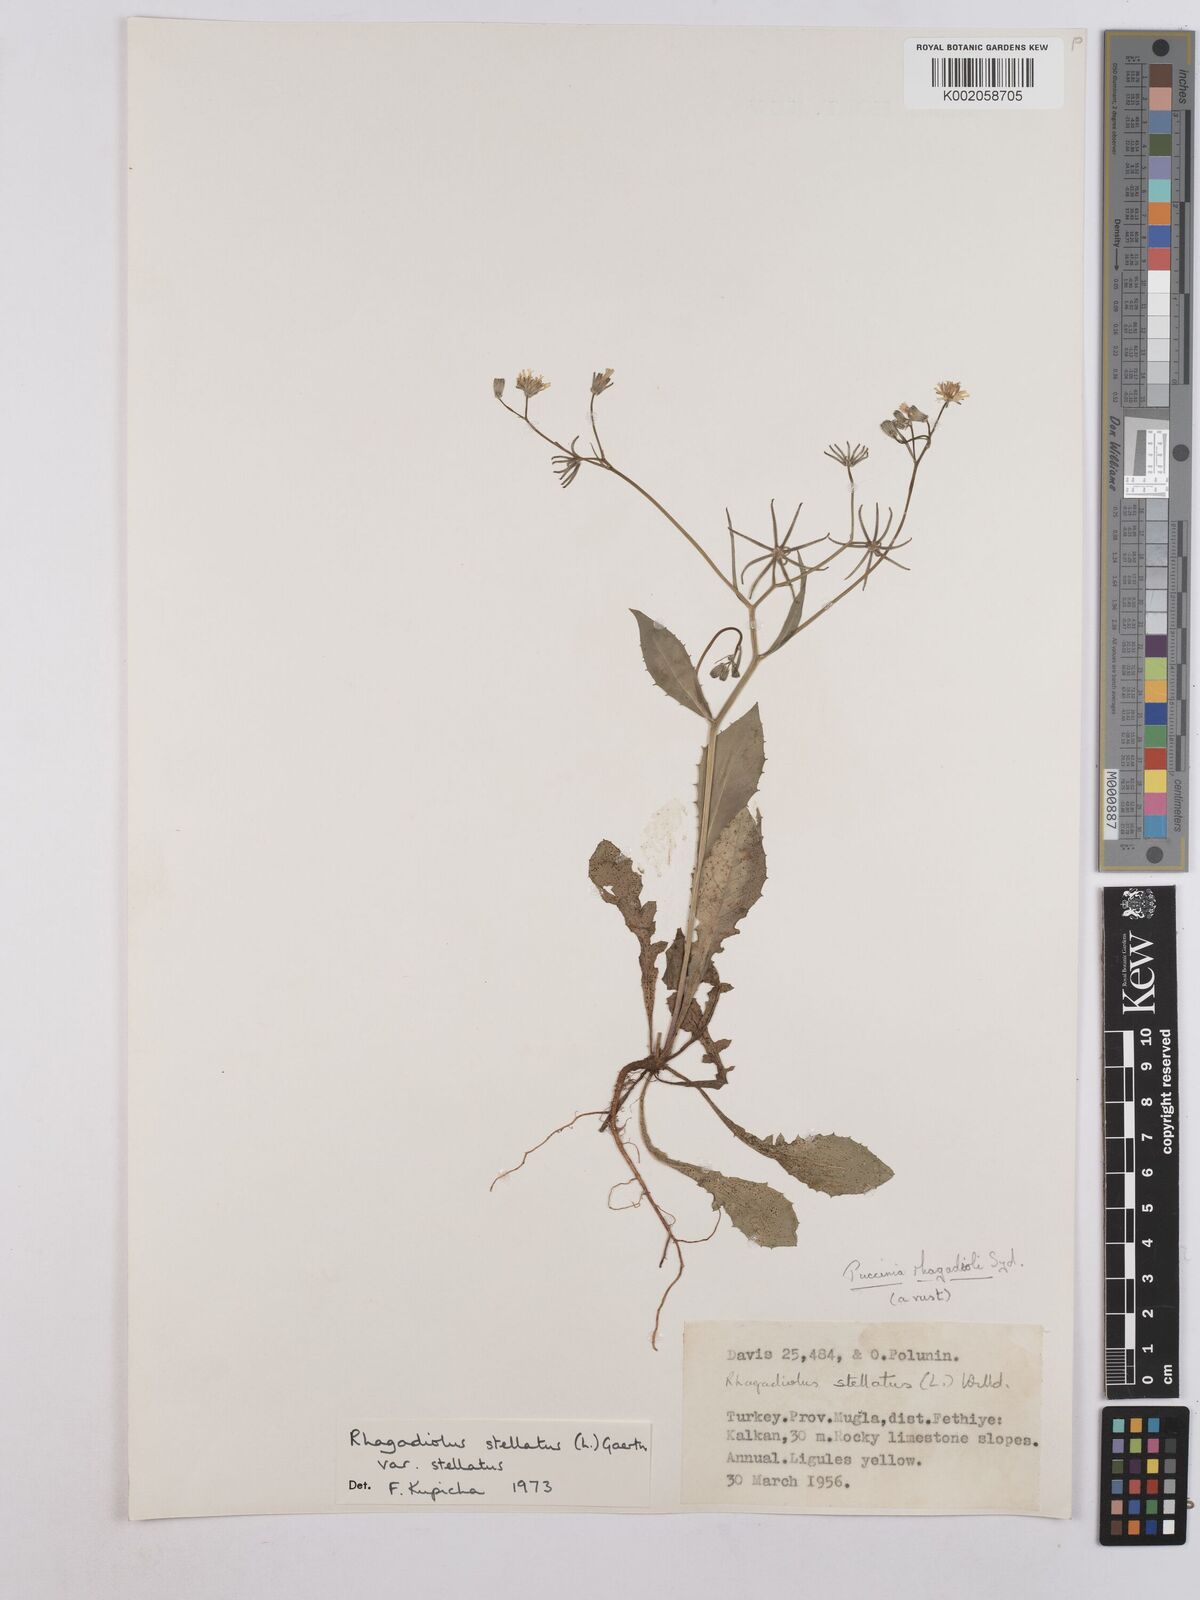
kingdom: Plantae
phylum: Tracheophyta
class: Magnoliopsida
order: Asterales
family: Asteraceae
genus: Rhagadiolus
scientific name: Rhagadiolus stellatus
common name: Star hawkbit
